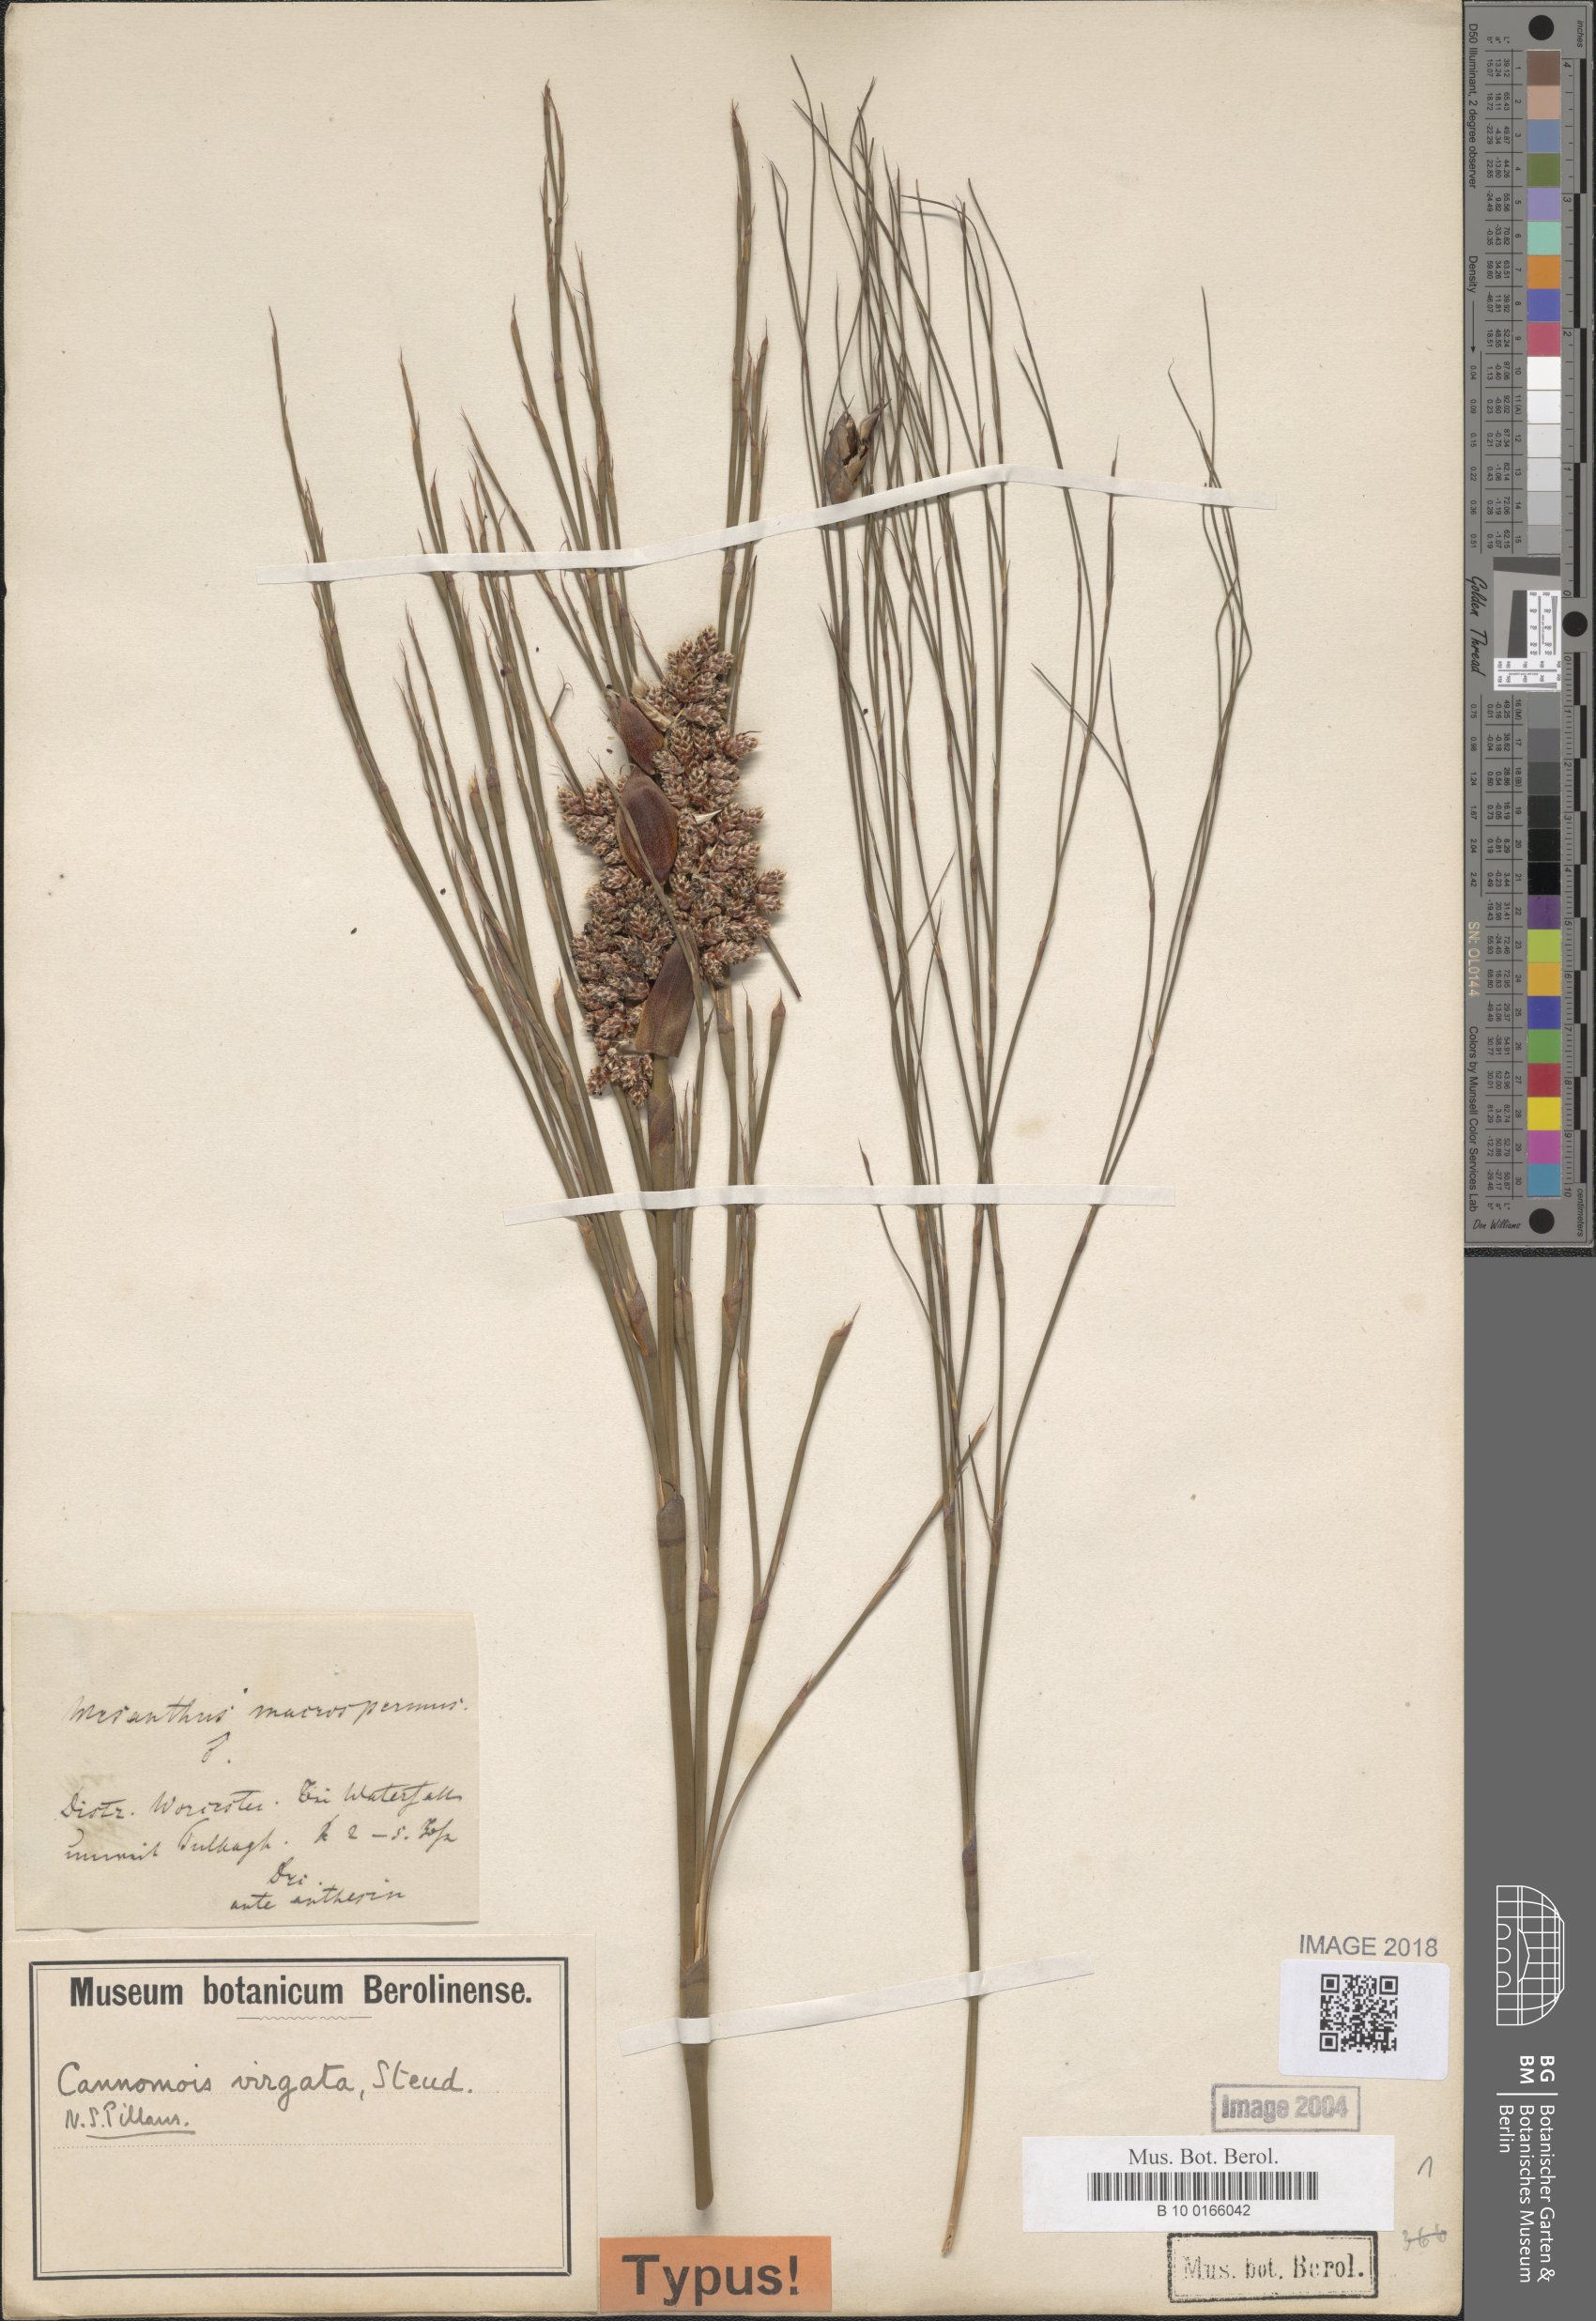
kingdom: Plantae
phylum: Tracheophyta
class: Liliopsida
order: Poales
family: Restionaceae
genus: Cannomois
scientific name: Cannomois virgata
